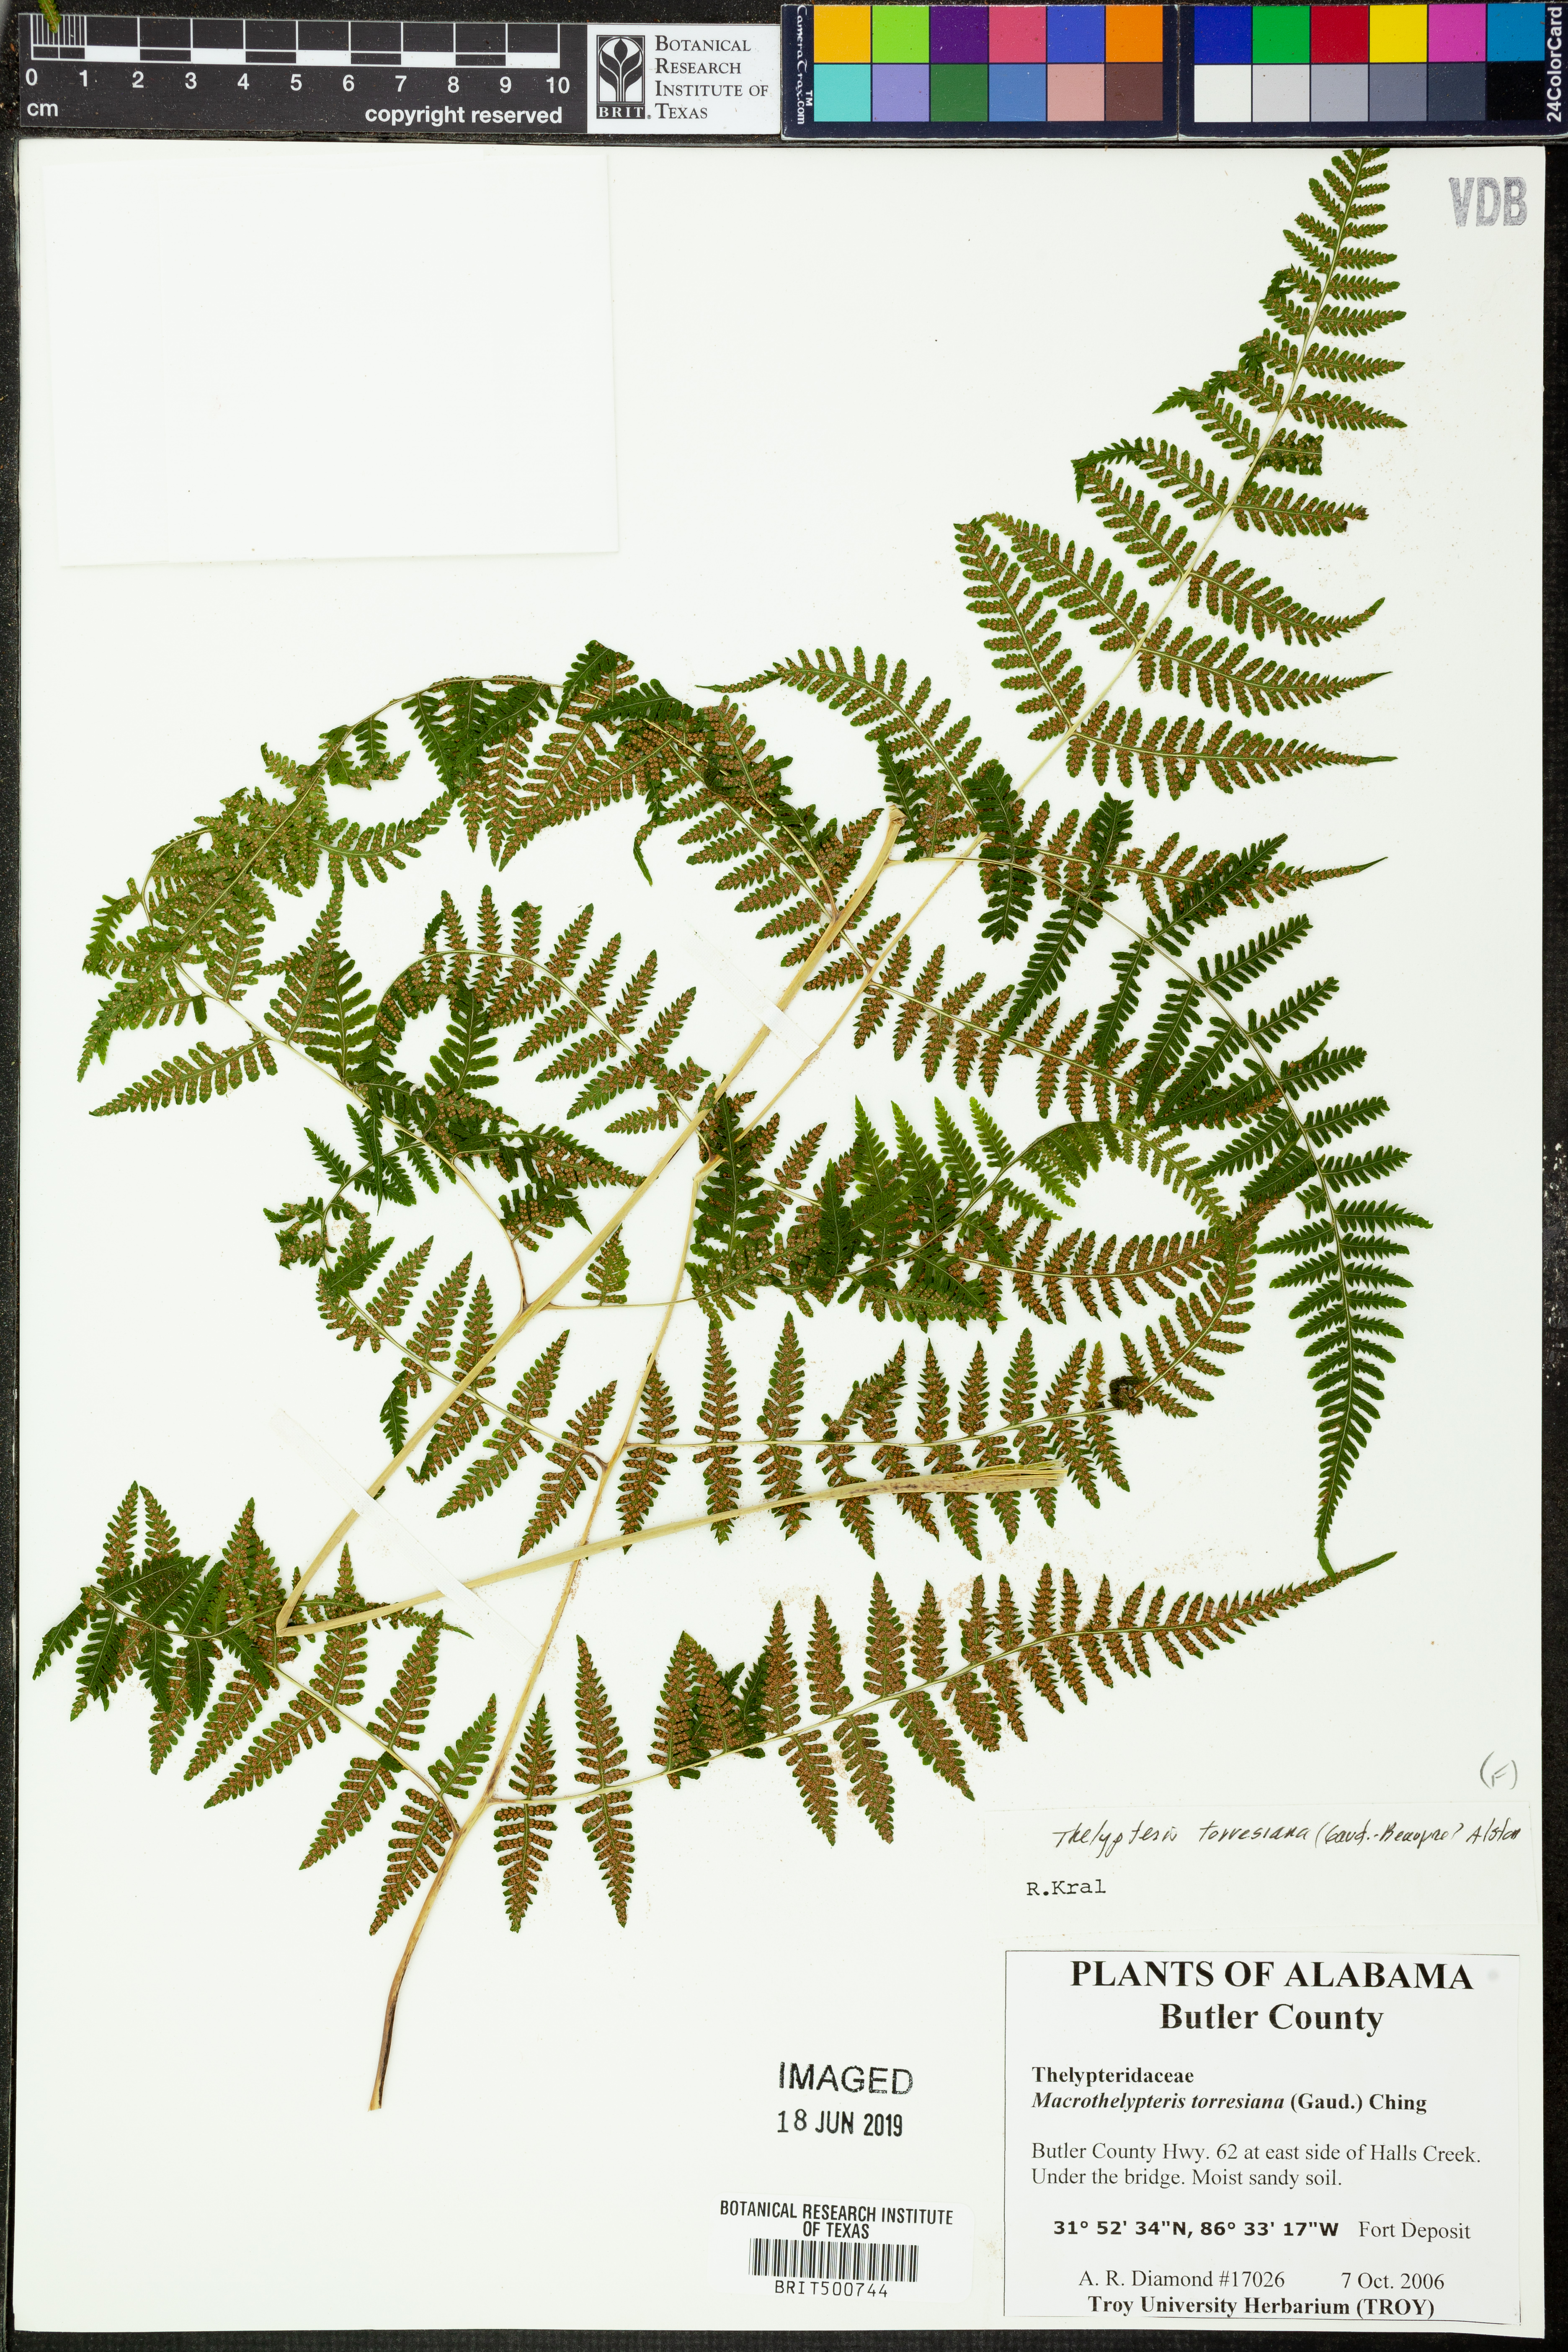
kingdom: Plantae
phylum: Tracheophyta
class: Polypodiopsida
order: Polypodiales
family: Thelypteridaceae
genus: Macrothelypteris
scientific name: Macrothelypteris torresiana
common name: Swordfern
